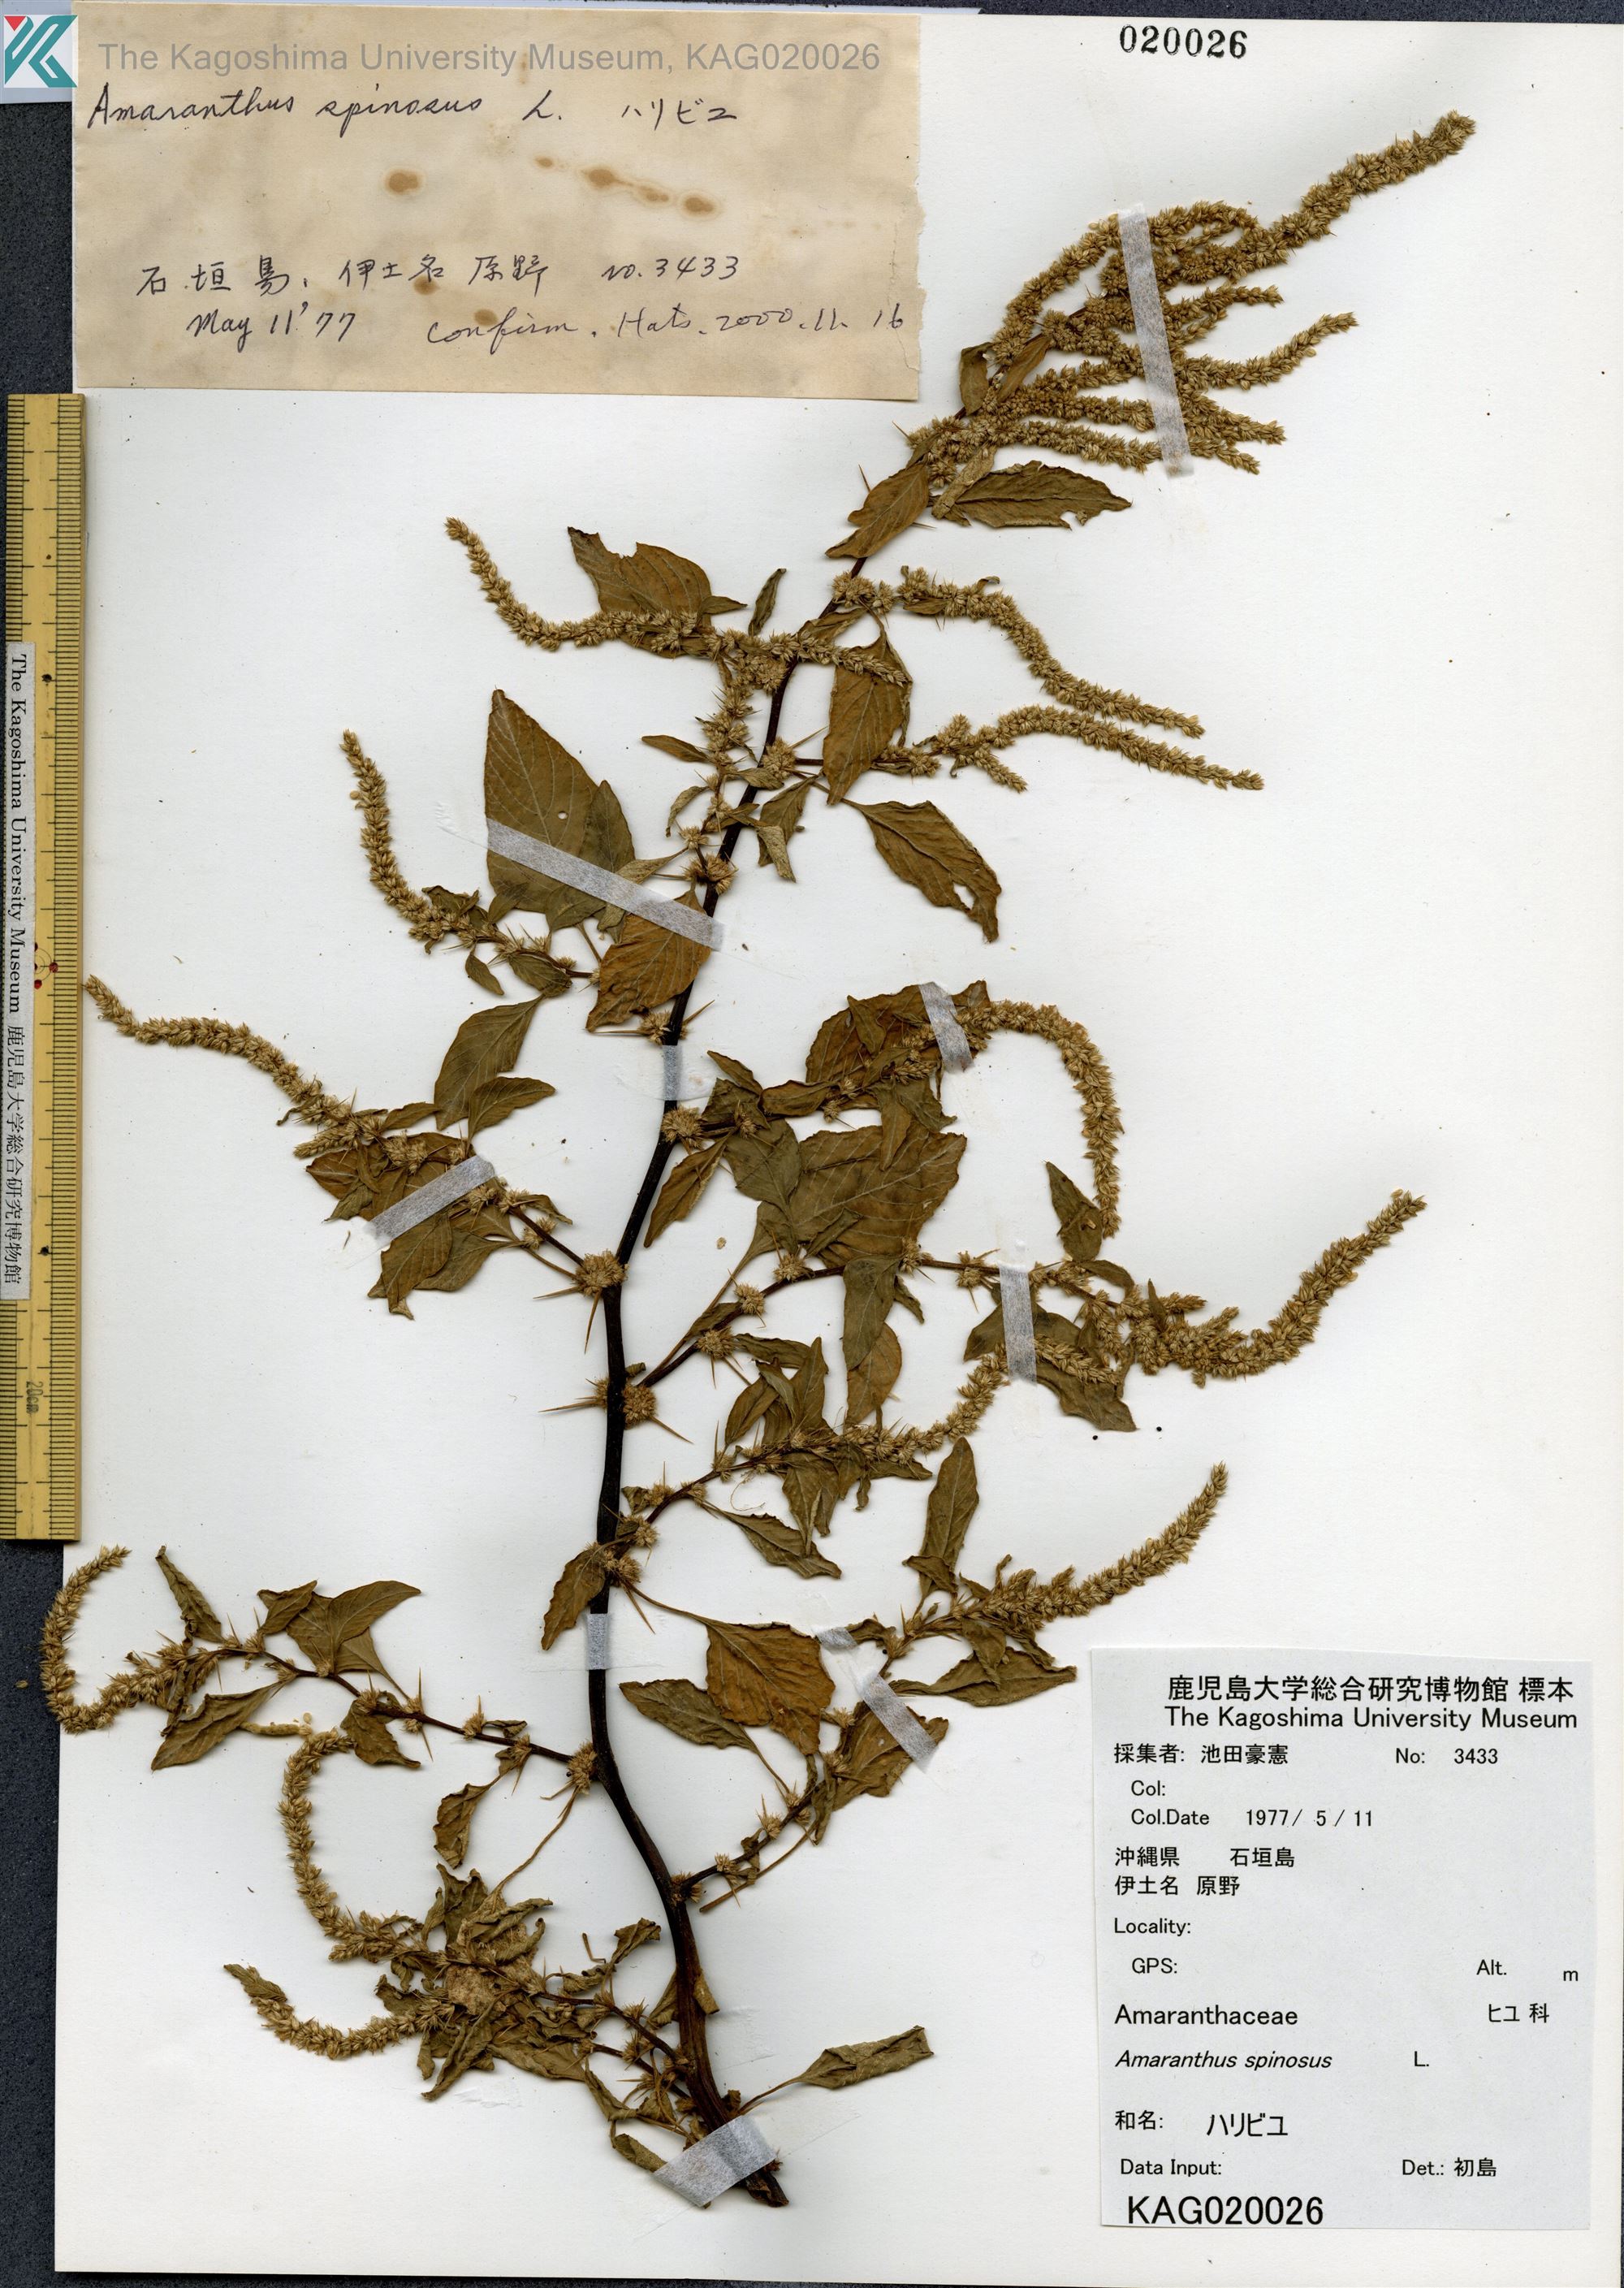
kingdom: Plantae
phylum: Tracheophyta
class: Magnoliopsida
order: Caryophyllales
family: Amaranthaceae
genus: Amaranthus
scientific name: Amaranthus spinosus
